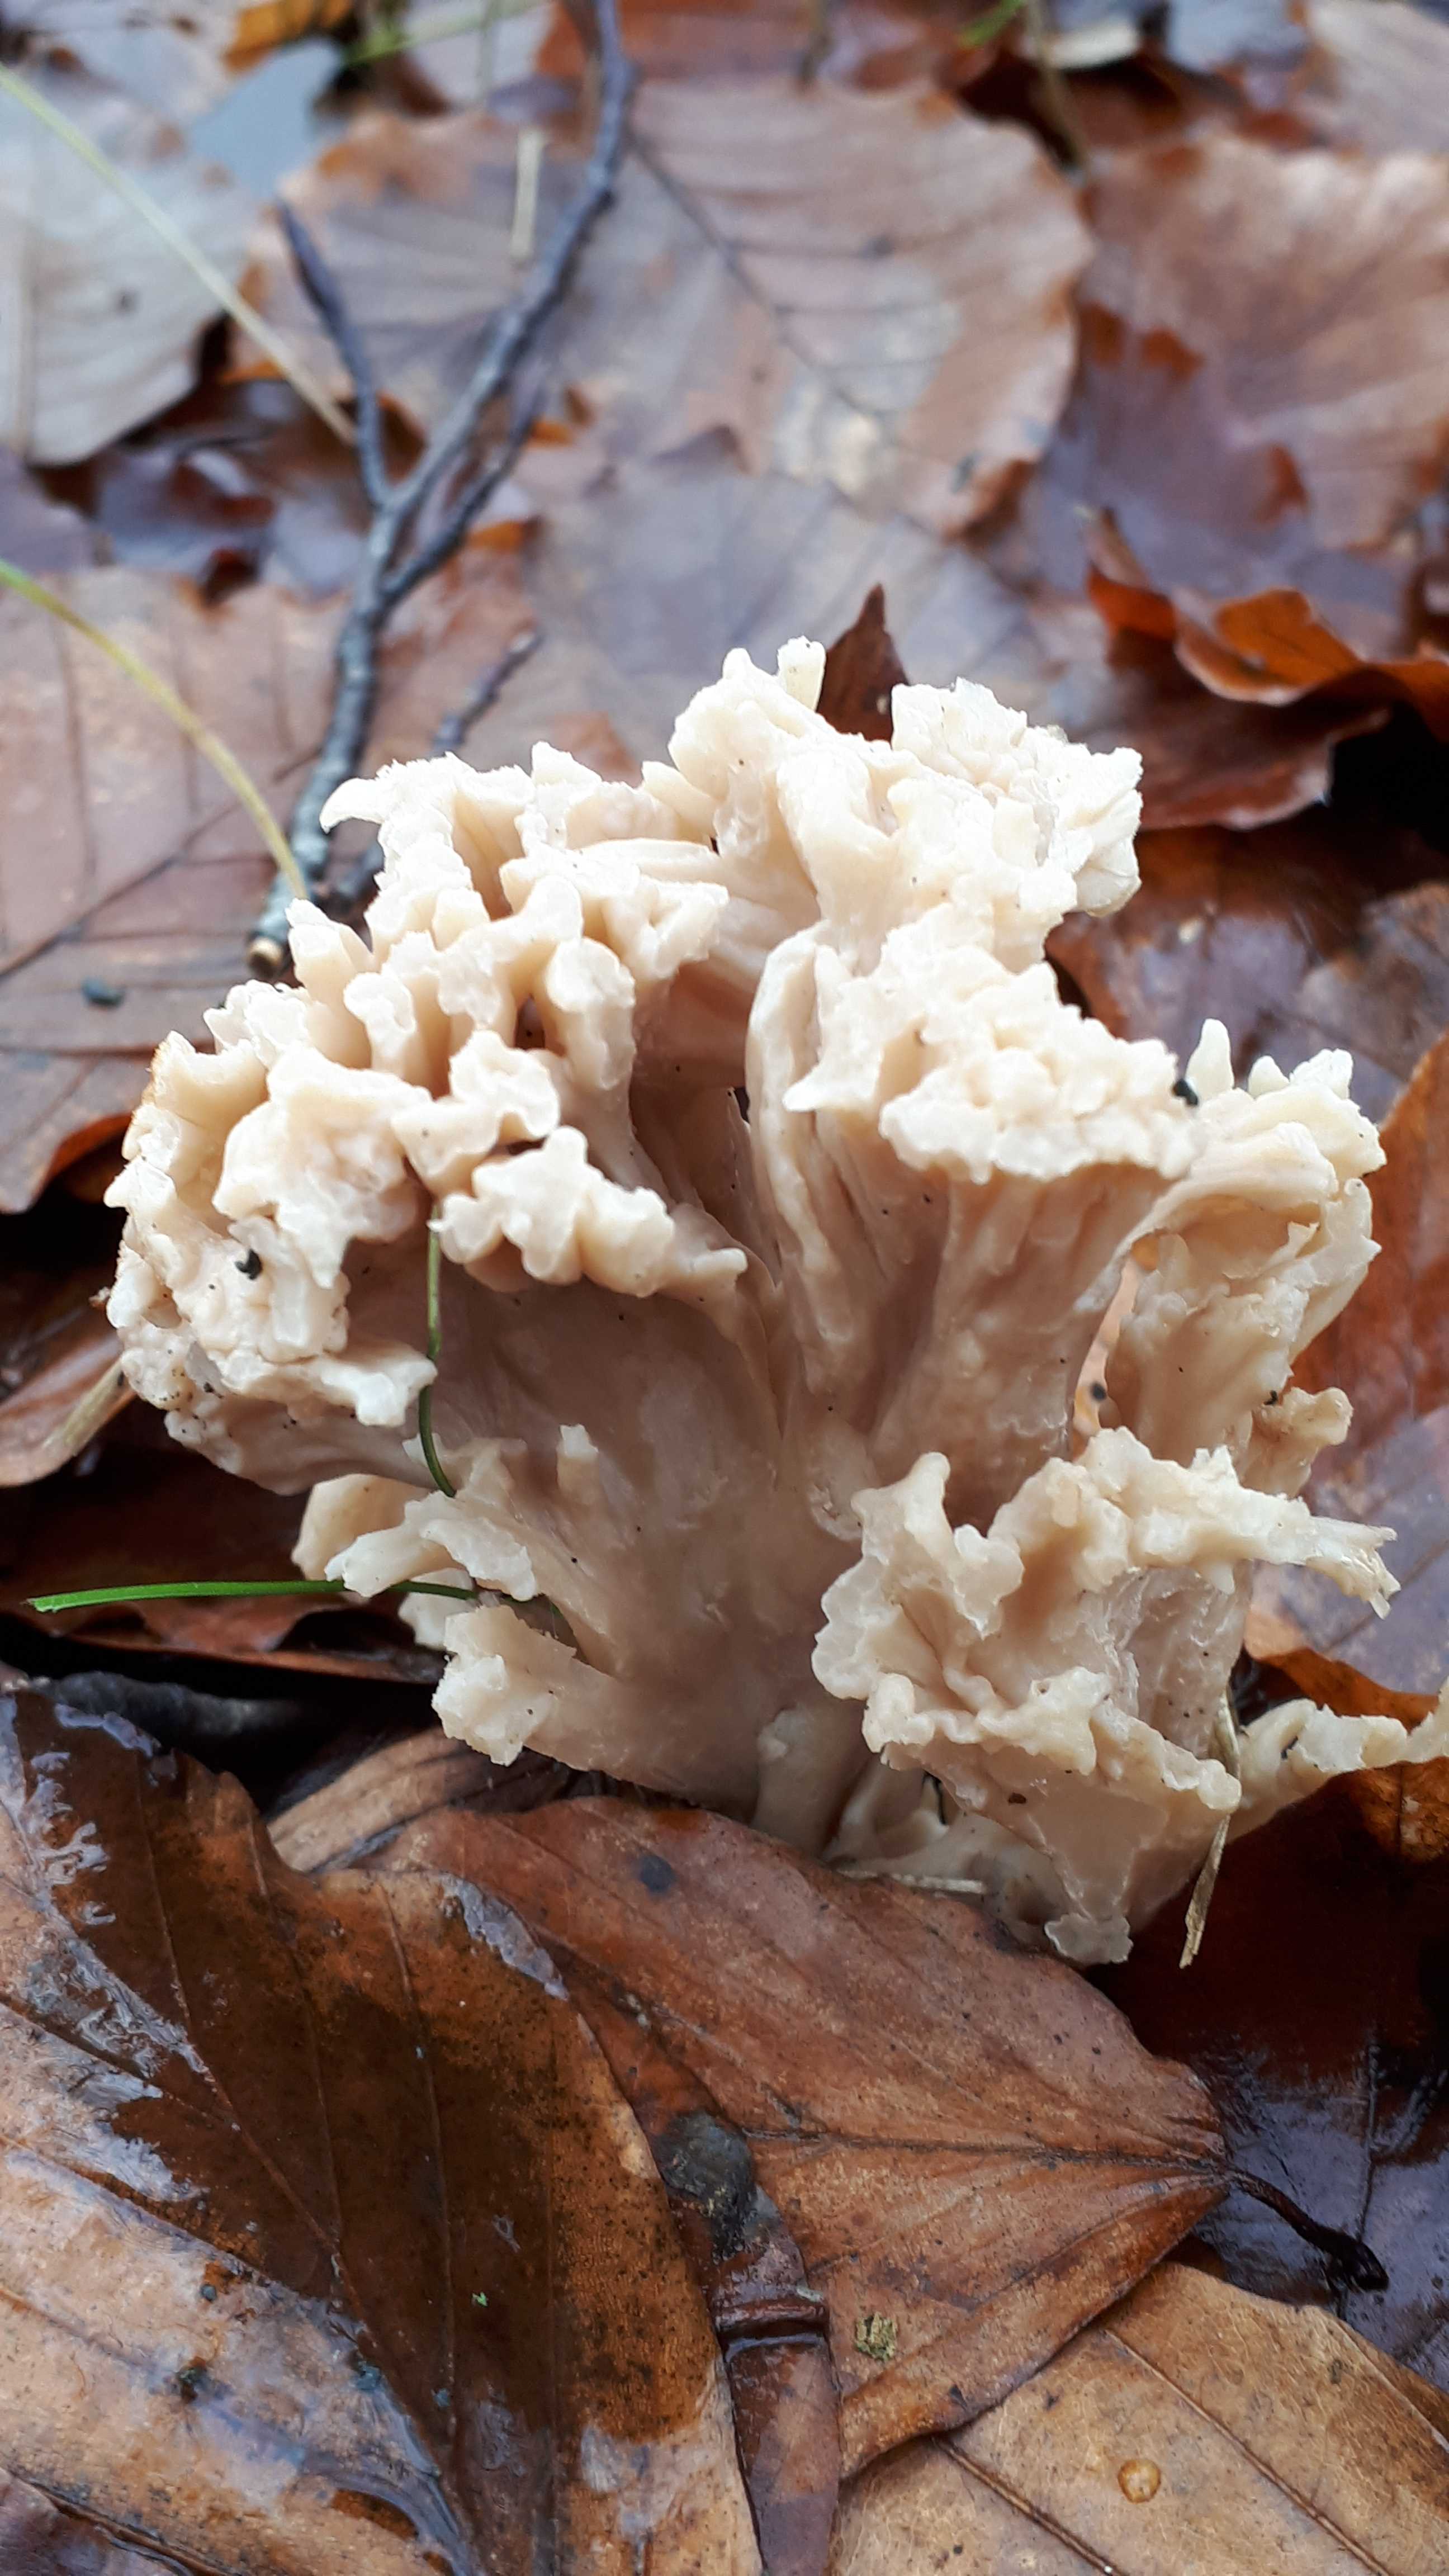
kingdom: Fungi
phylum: Basidiomycota
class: Agaricomycetes
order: Cantharellales
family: Hydnaceae
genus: Clavulina
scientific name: Clavulina
